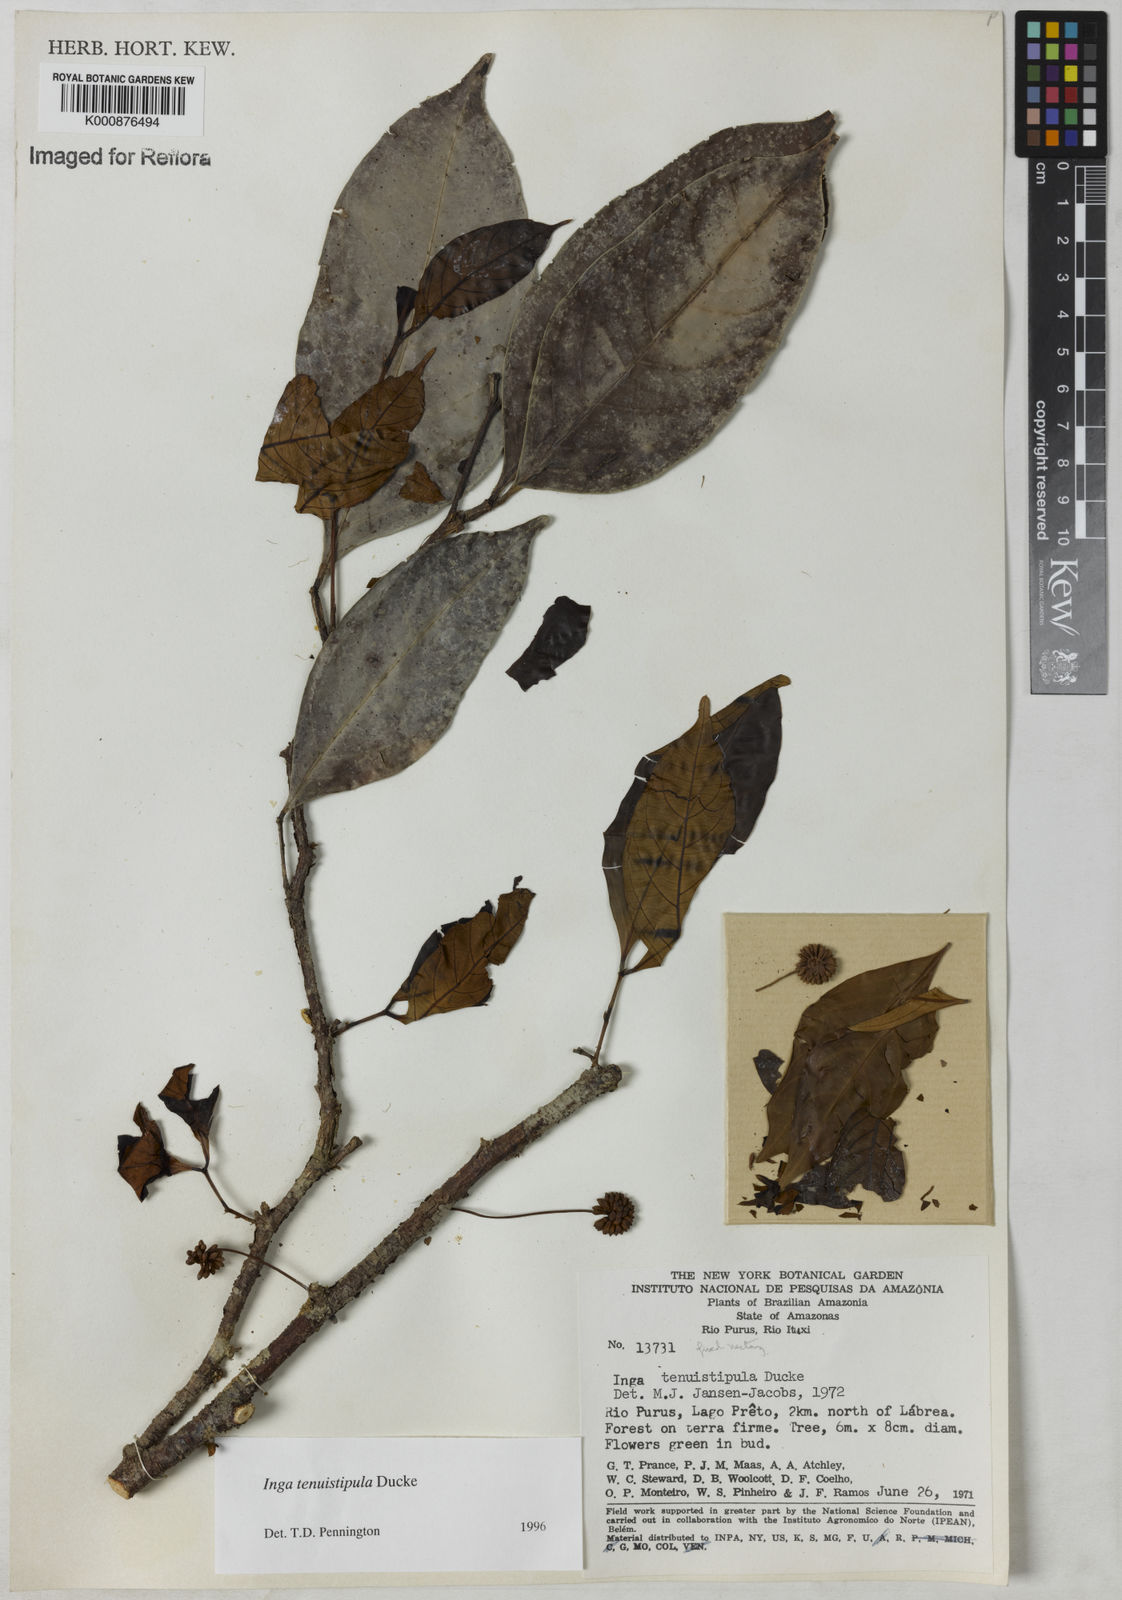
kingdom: Plantae
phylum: Tracheophyta
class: Magnoliopsida
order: Fabales
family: Fabaceae
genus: Inga
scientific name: Inga tenuistipula
